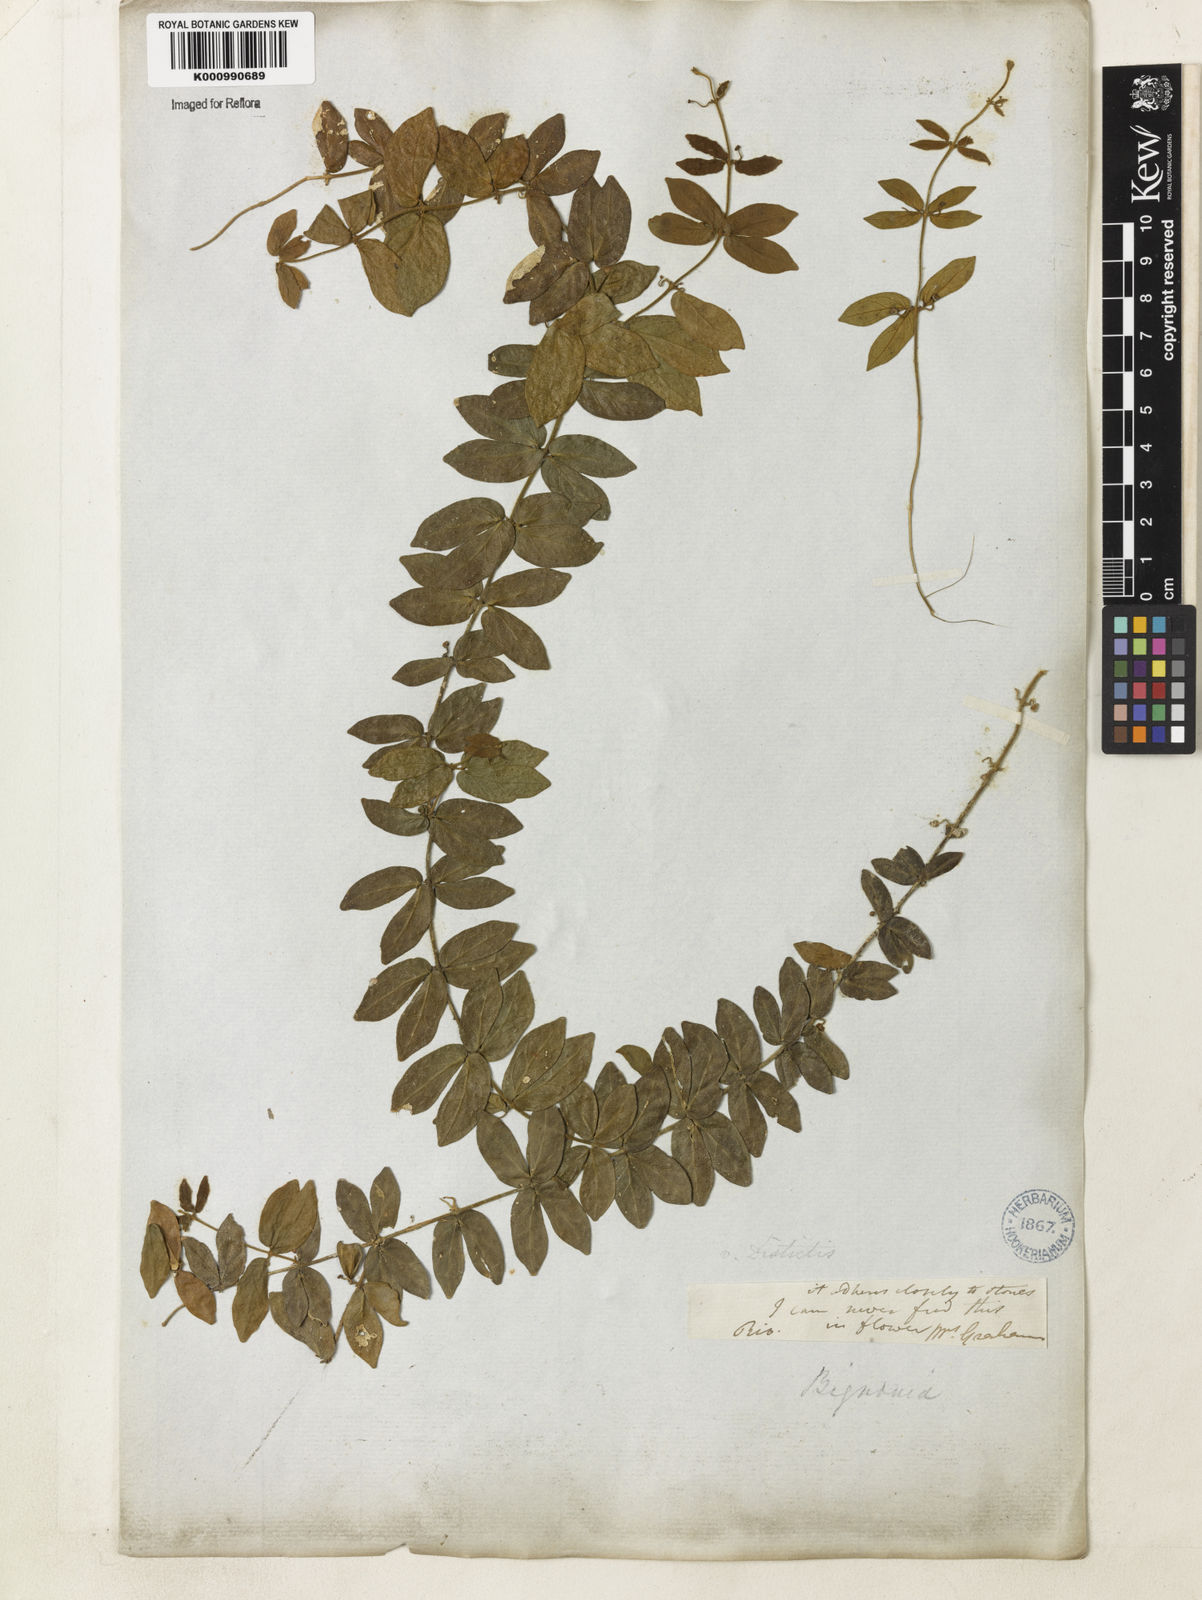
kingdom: Plantae
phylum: Tracheophyta
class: Magnoliopsida
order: Lamiales
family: Bignoniaceae
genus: Amphilophium
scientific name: Amphilophium bauhinioides
